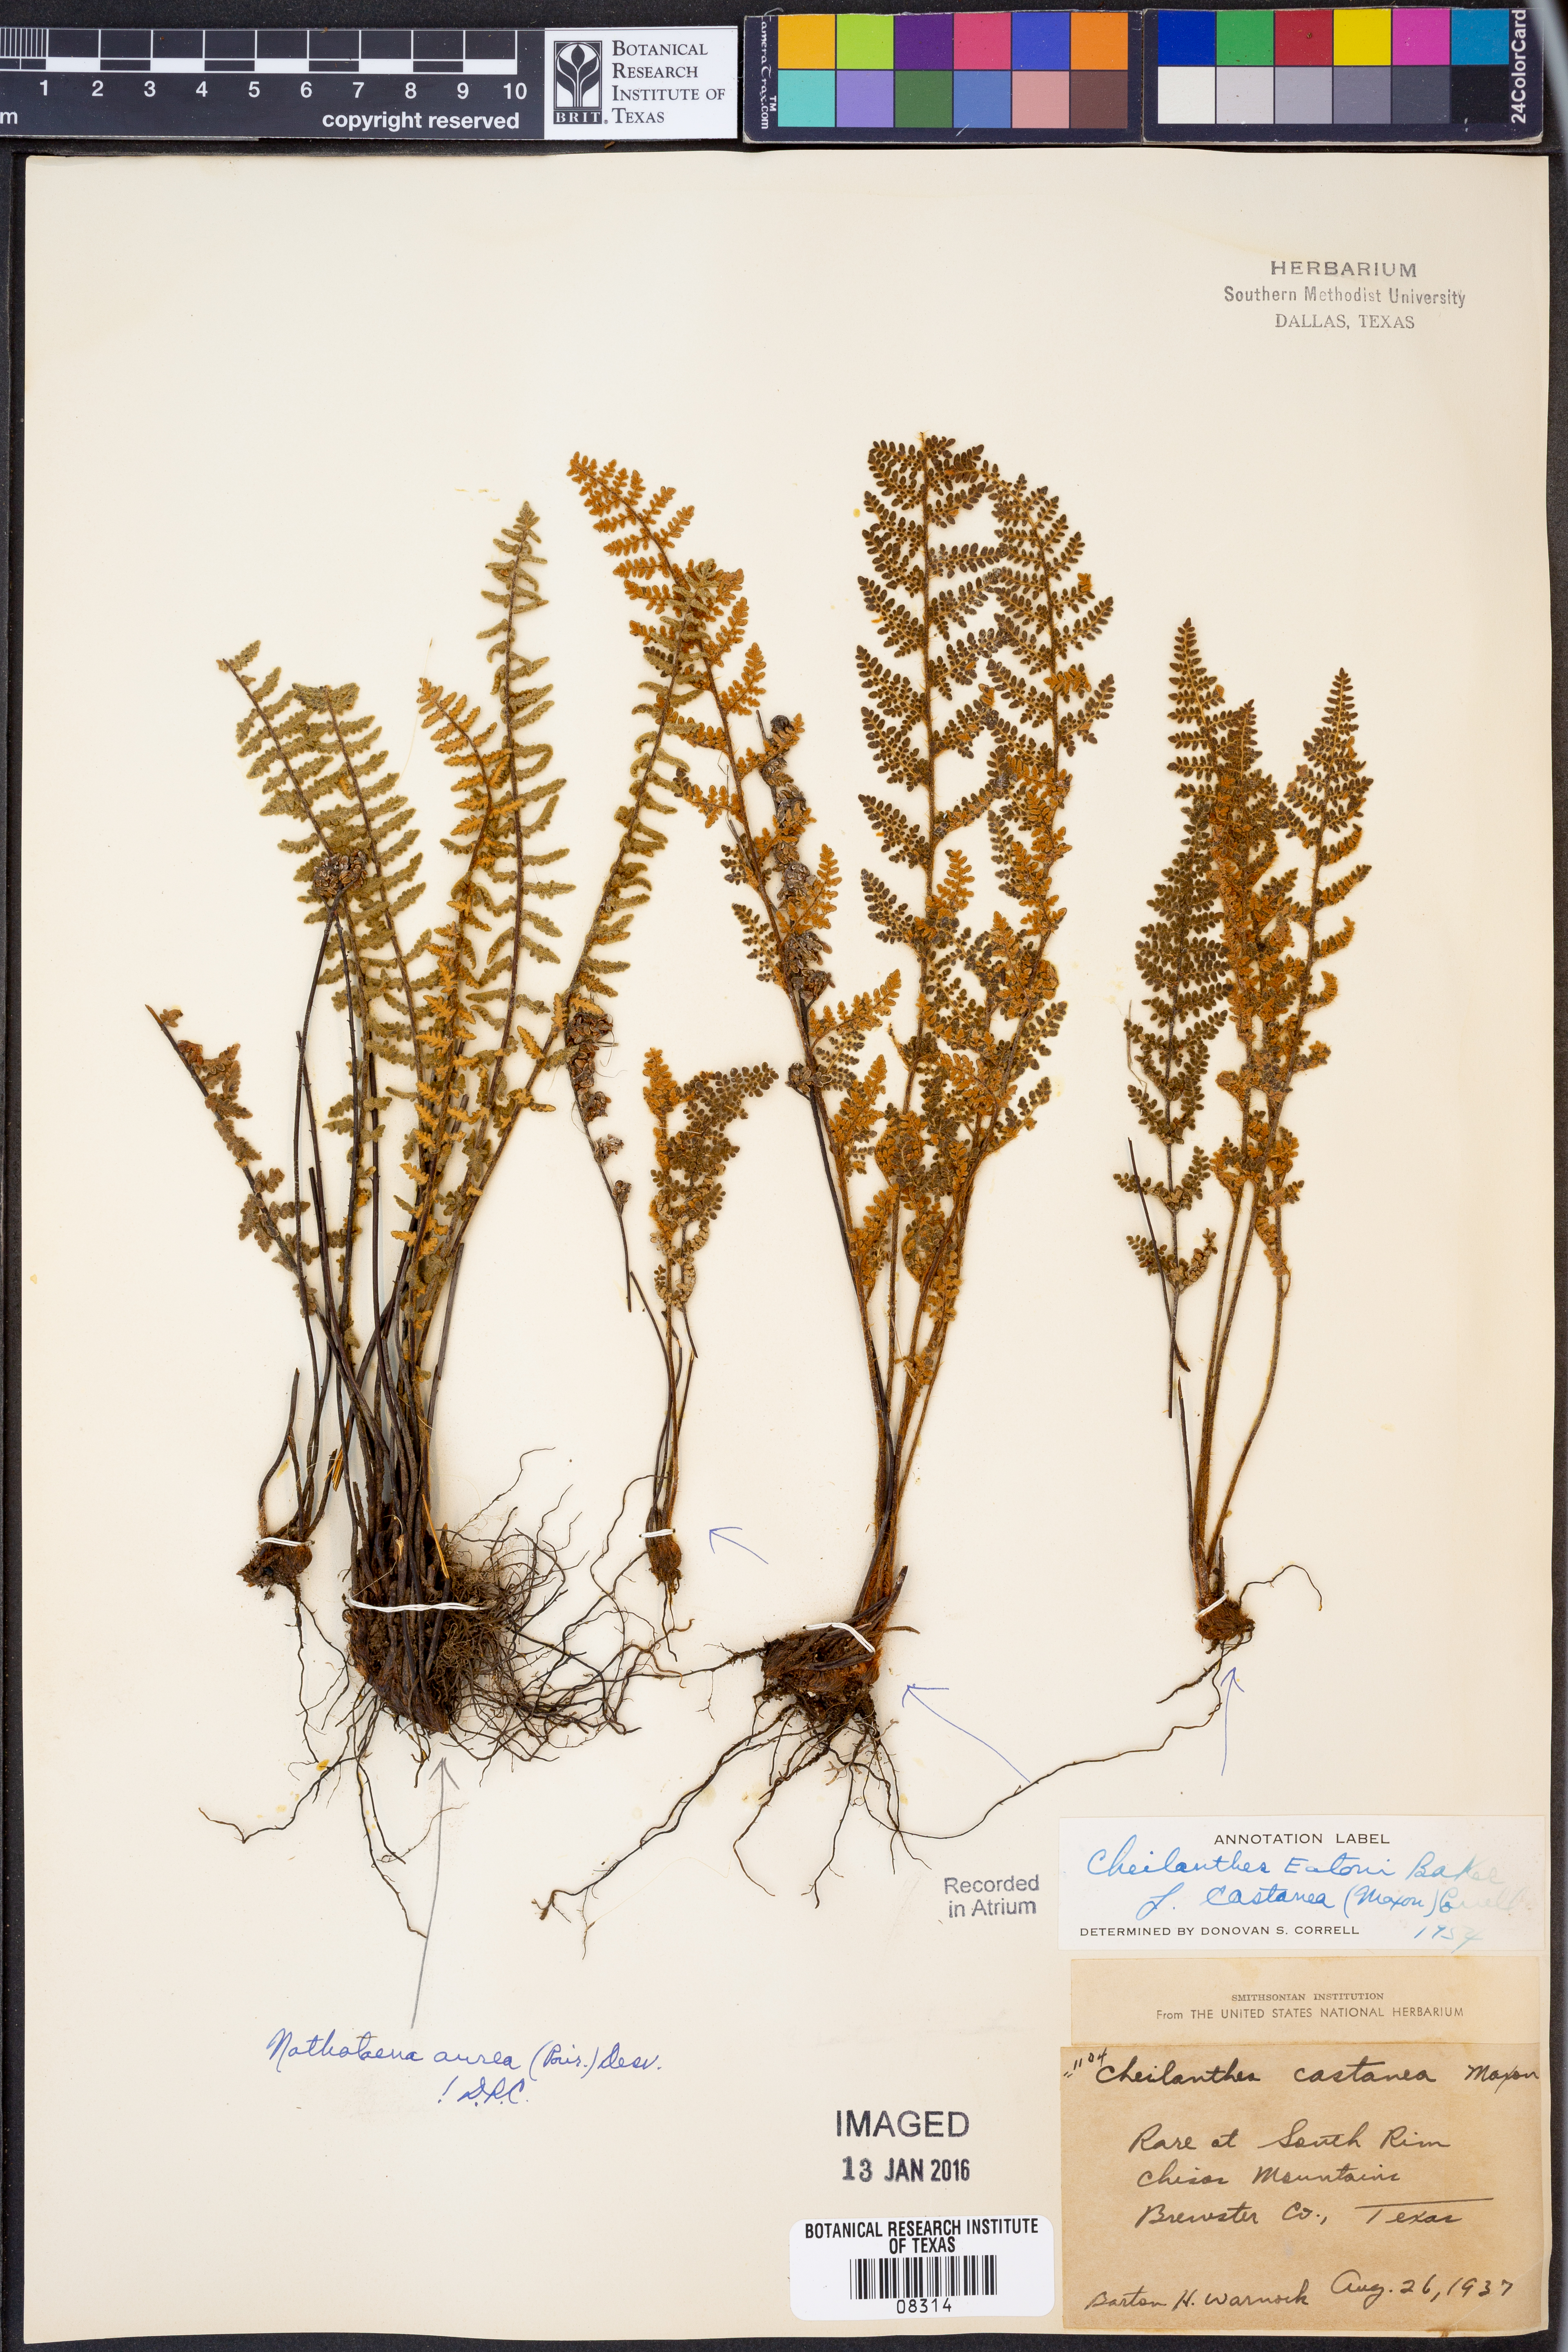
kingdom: Plantae
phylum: Tracheophyta
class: Polypodiopsida
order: Polypodiales
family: Pteridaceae
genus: Myriopteris
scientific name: Myriopteris rufa
